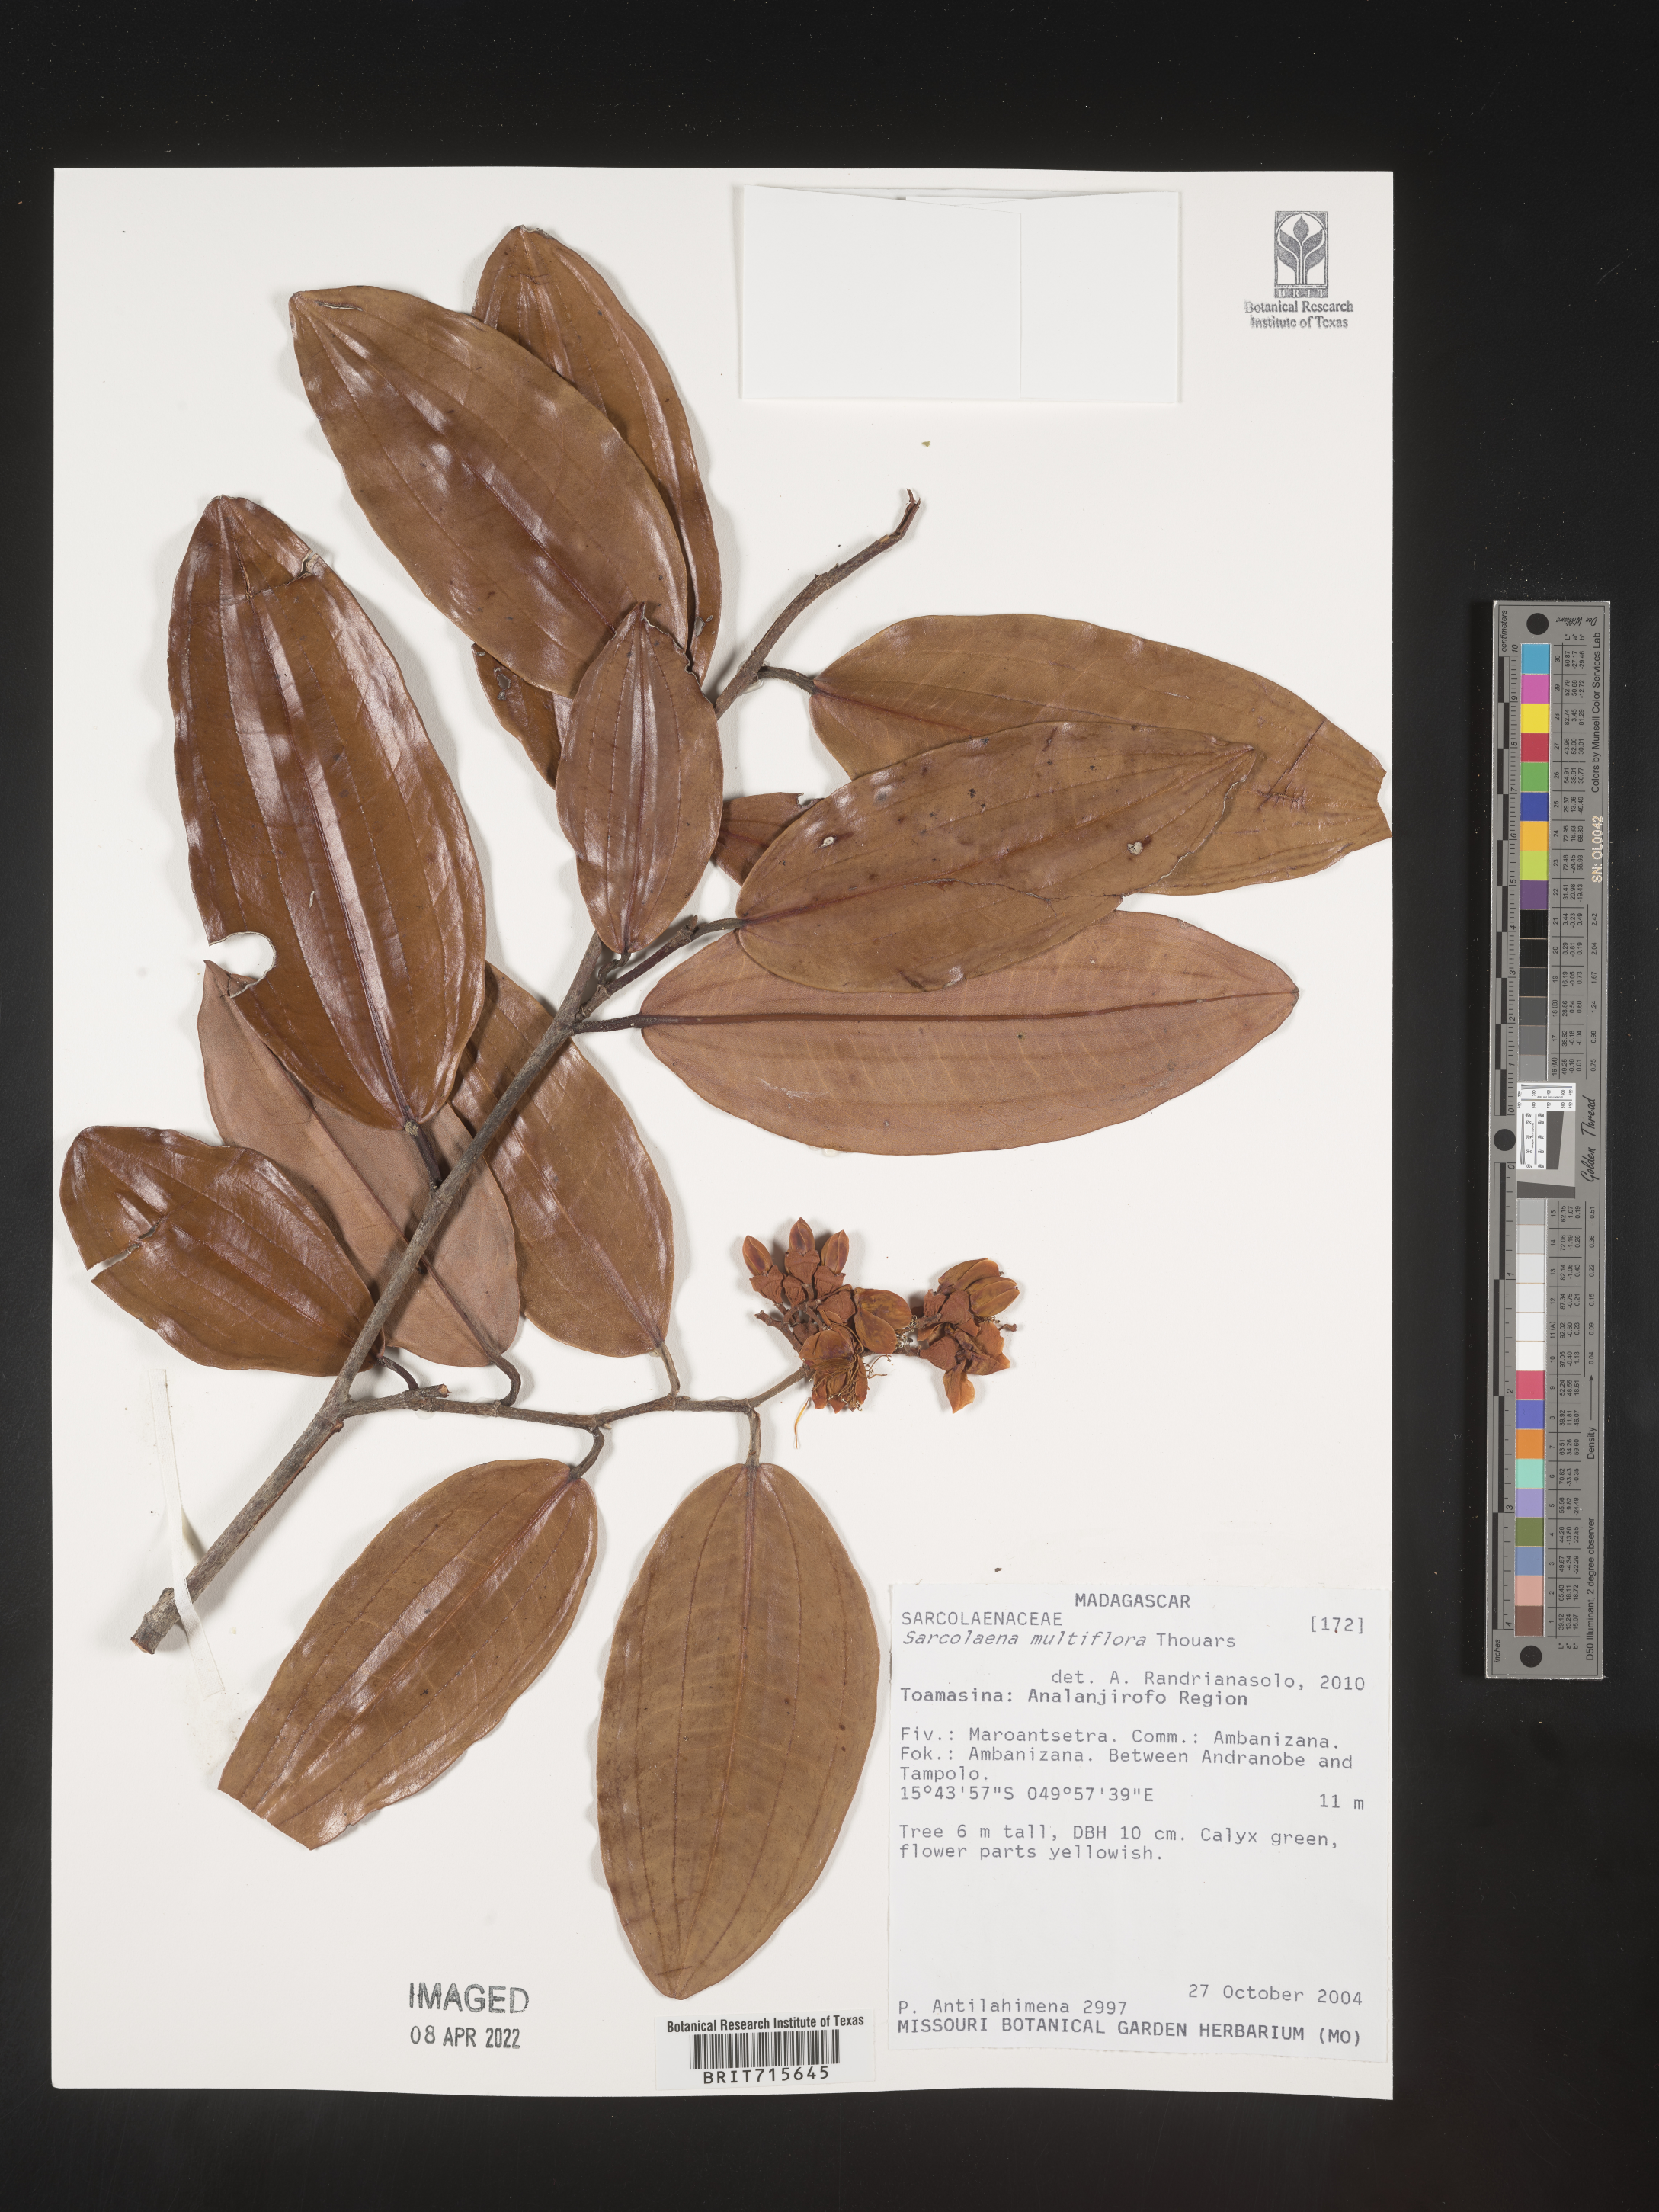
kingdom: Plantae
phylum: Tracheophyta
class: Magnoliopsida
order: Malvales
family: Sarcolaenaceae
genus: Sarcolaena
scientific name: Sarcolaena
